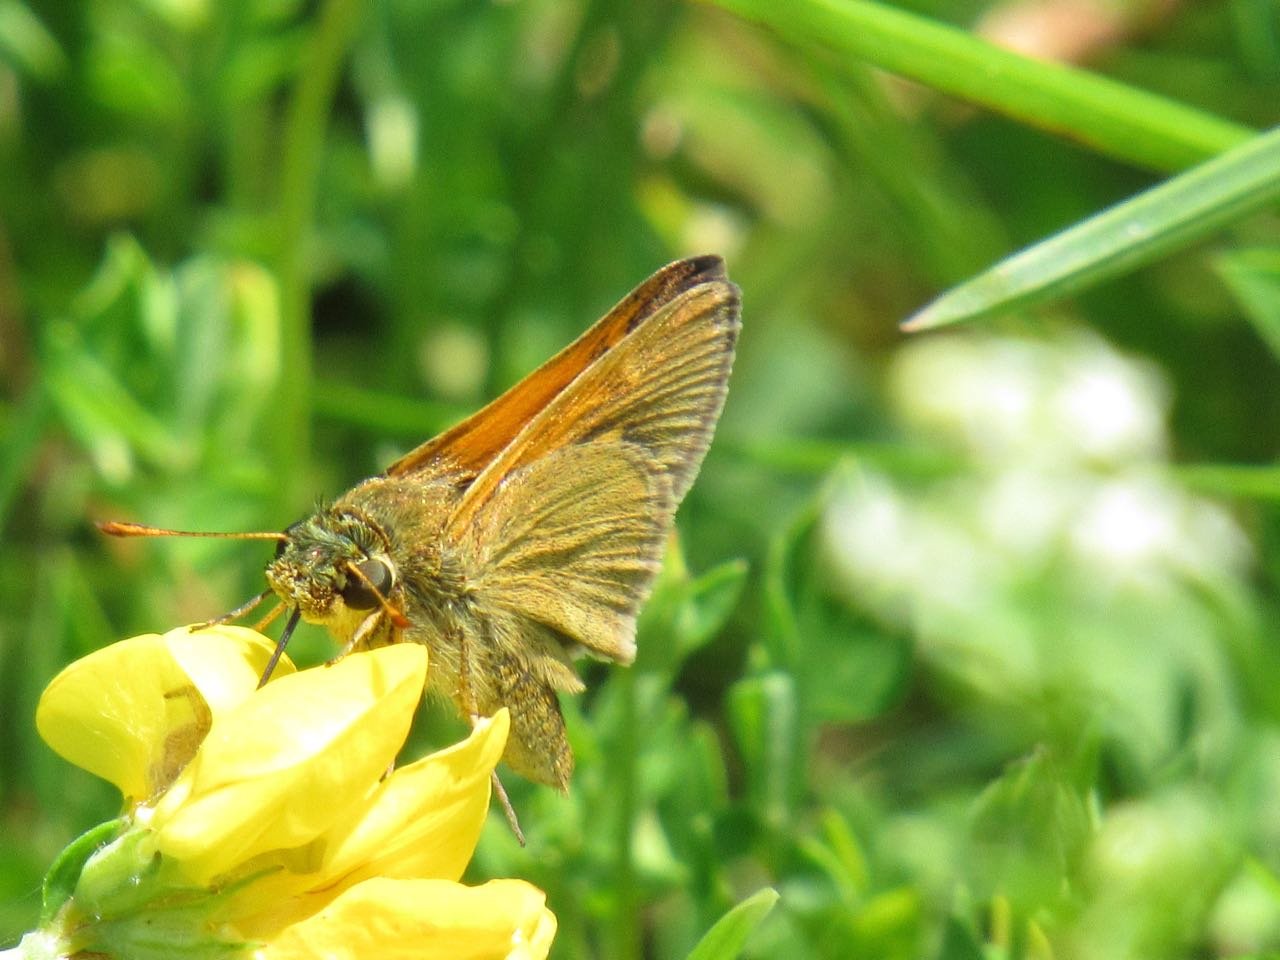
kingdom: Animalia
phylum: Arthropoda
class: Insecta
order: Lepidoptera
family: Hesperiidae
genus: Polites
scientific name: Polites themistocles
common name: Tawny-edged Skipper
